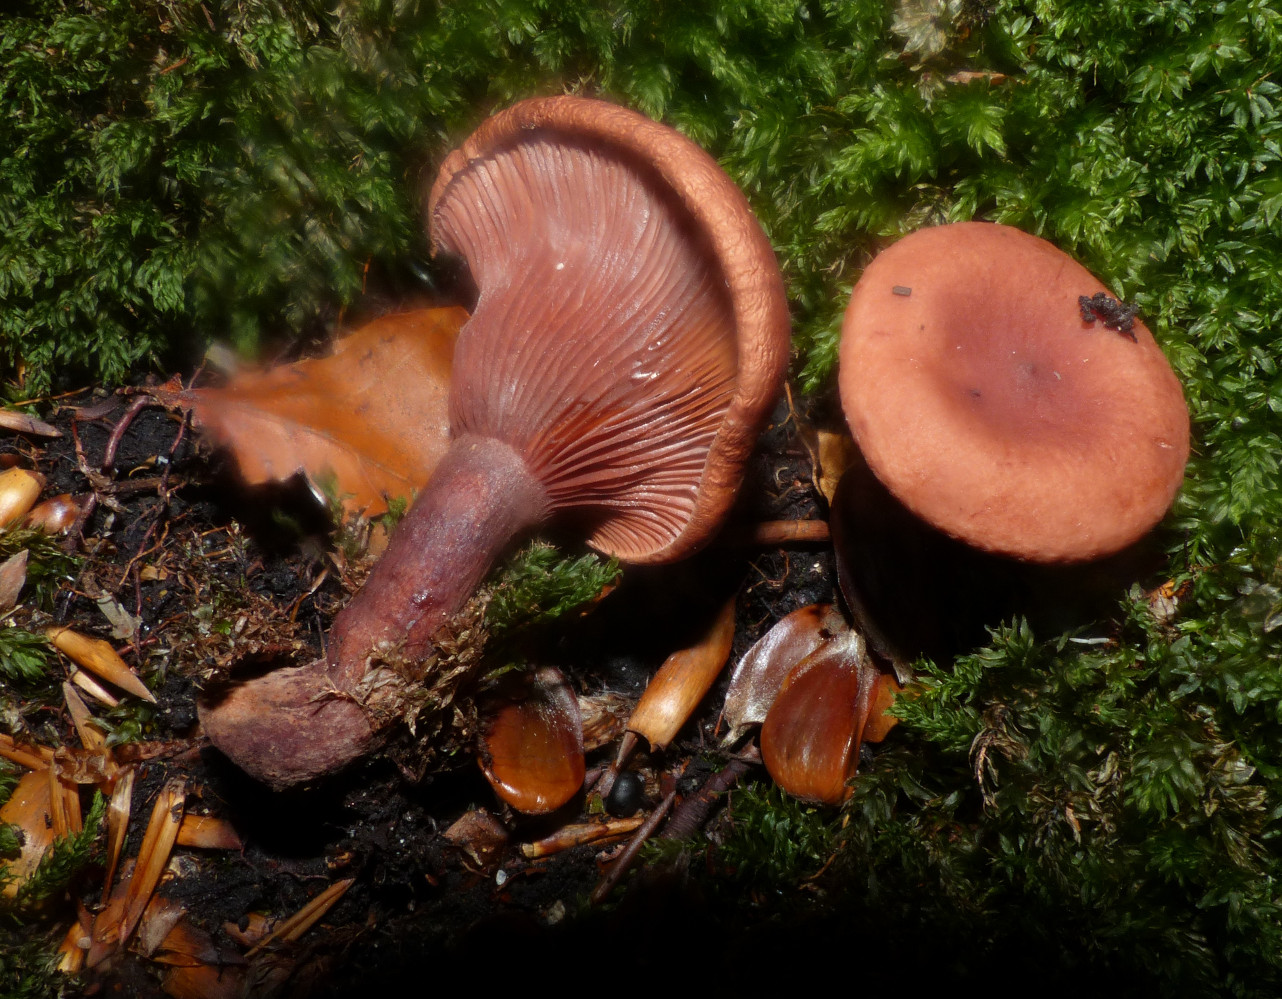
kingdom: Fungi
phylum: Basidiomycota
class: Agaricomycetes
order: Russulales
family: Russulaceae
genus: Lactarius
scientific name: Lactarius camphoratus
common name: kamfer-mælkehat
